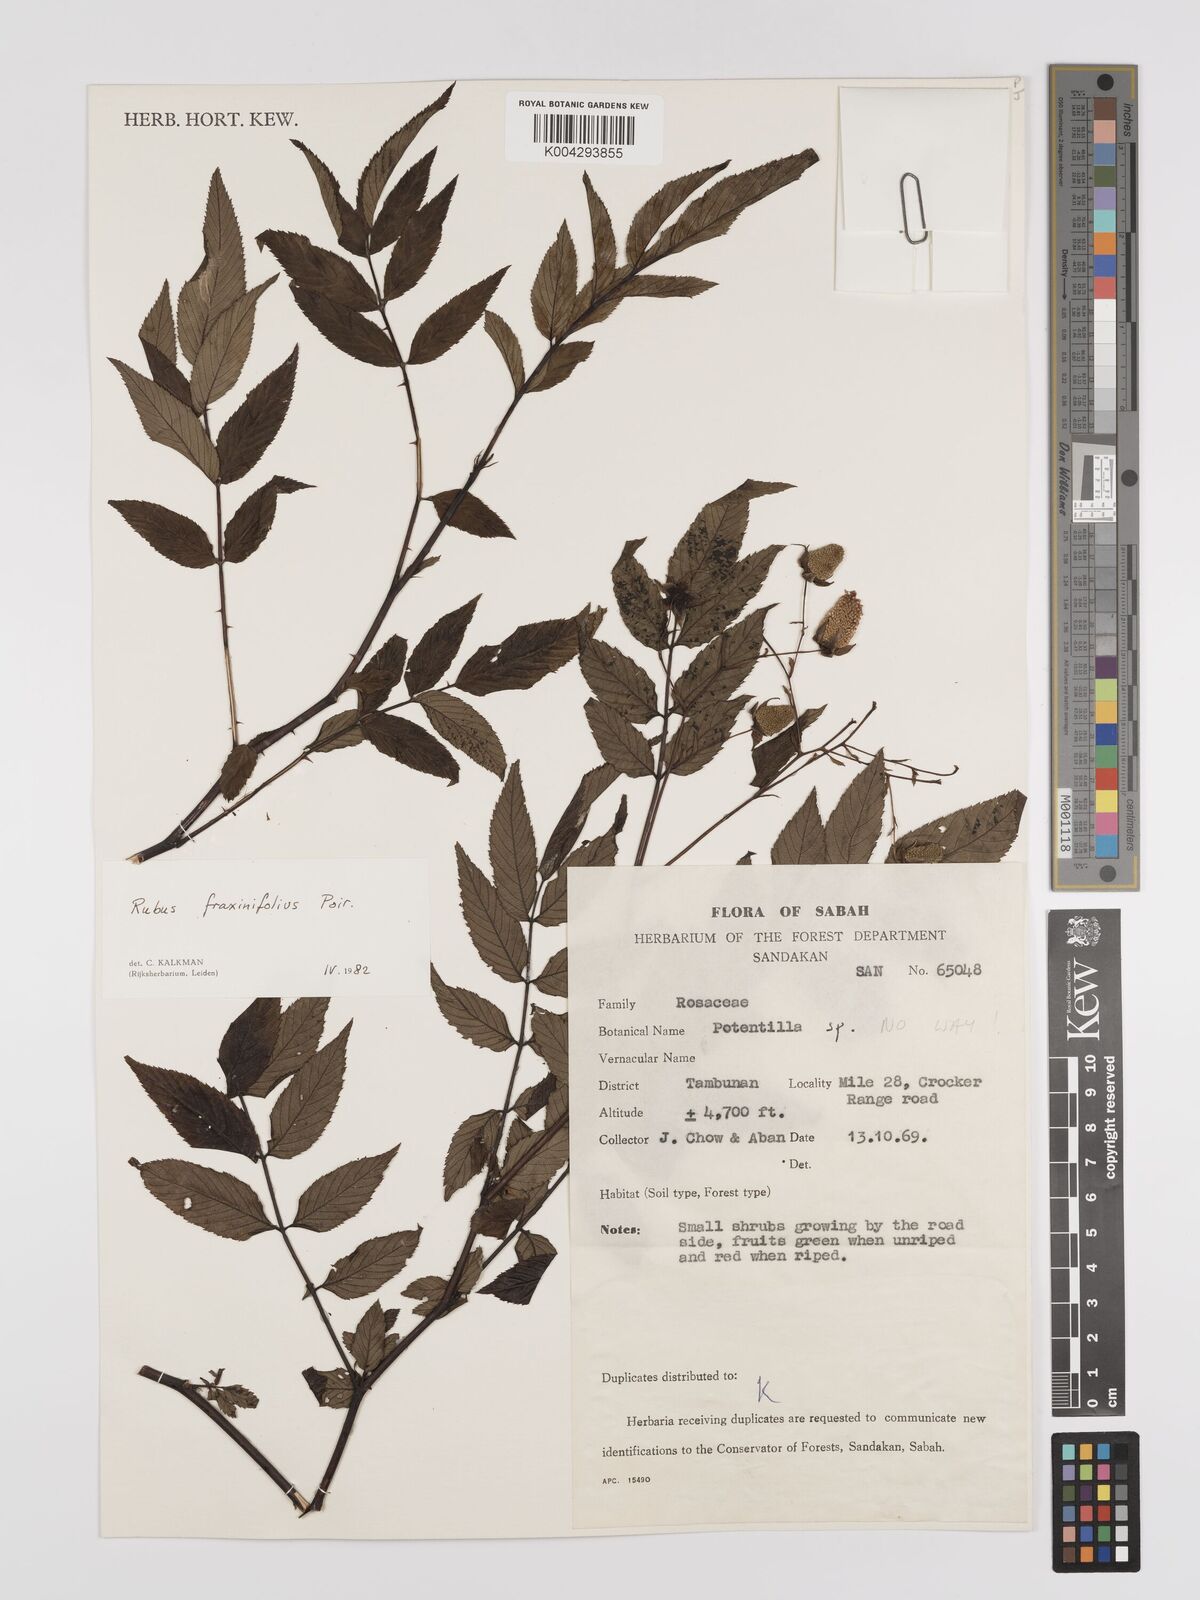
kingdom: Plantae
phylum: Tracheophyta
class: Magnoliopsida
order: Rosales
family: Rosaceae
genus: Rubus
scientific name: Rubus fraxinifolius
